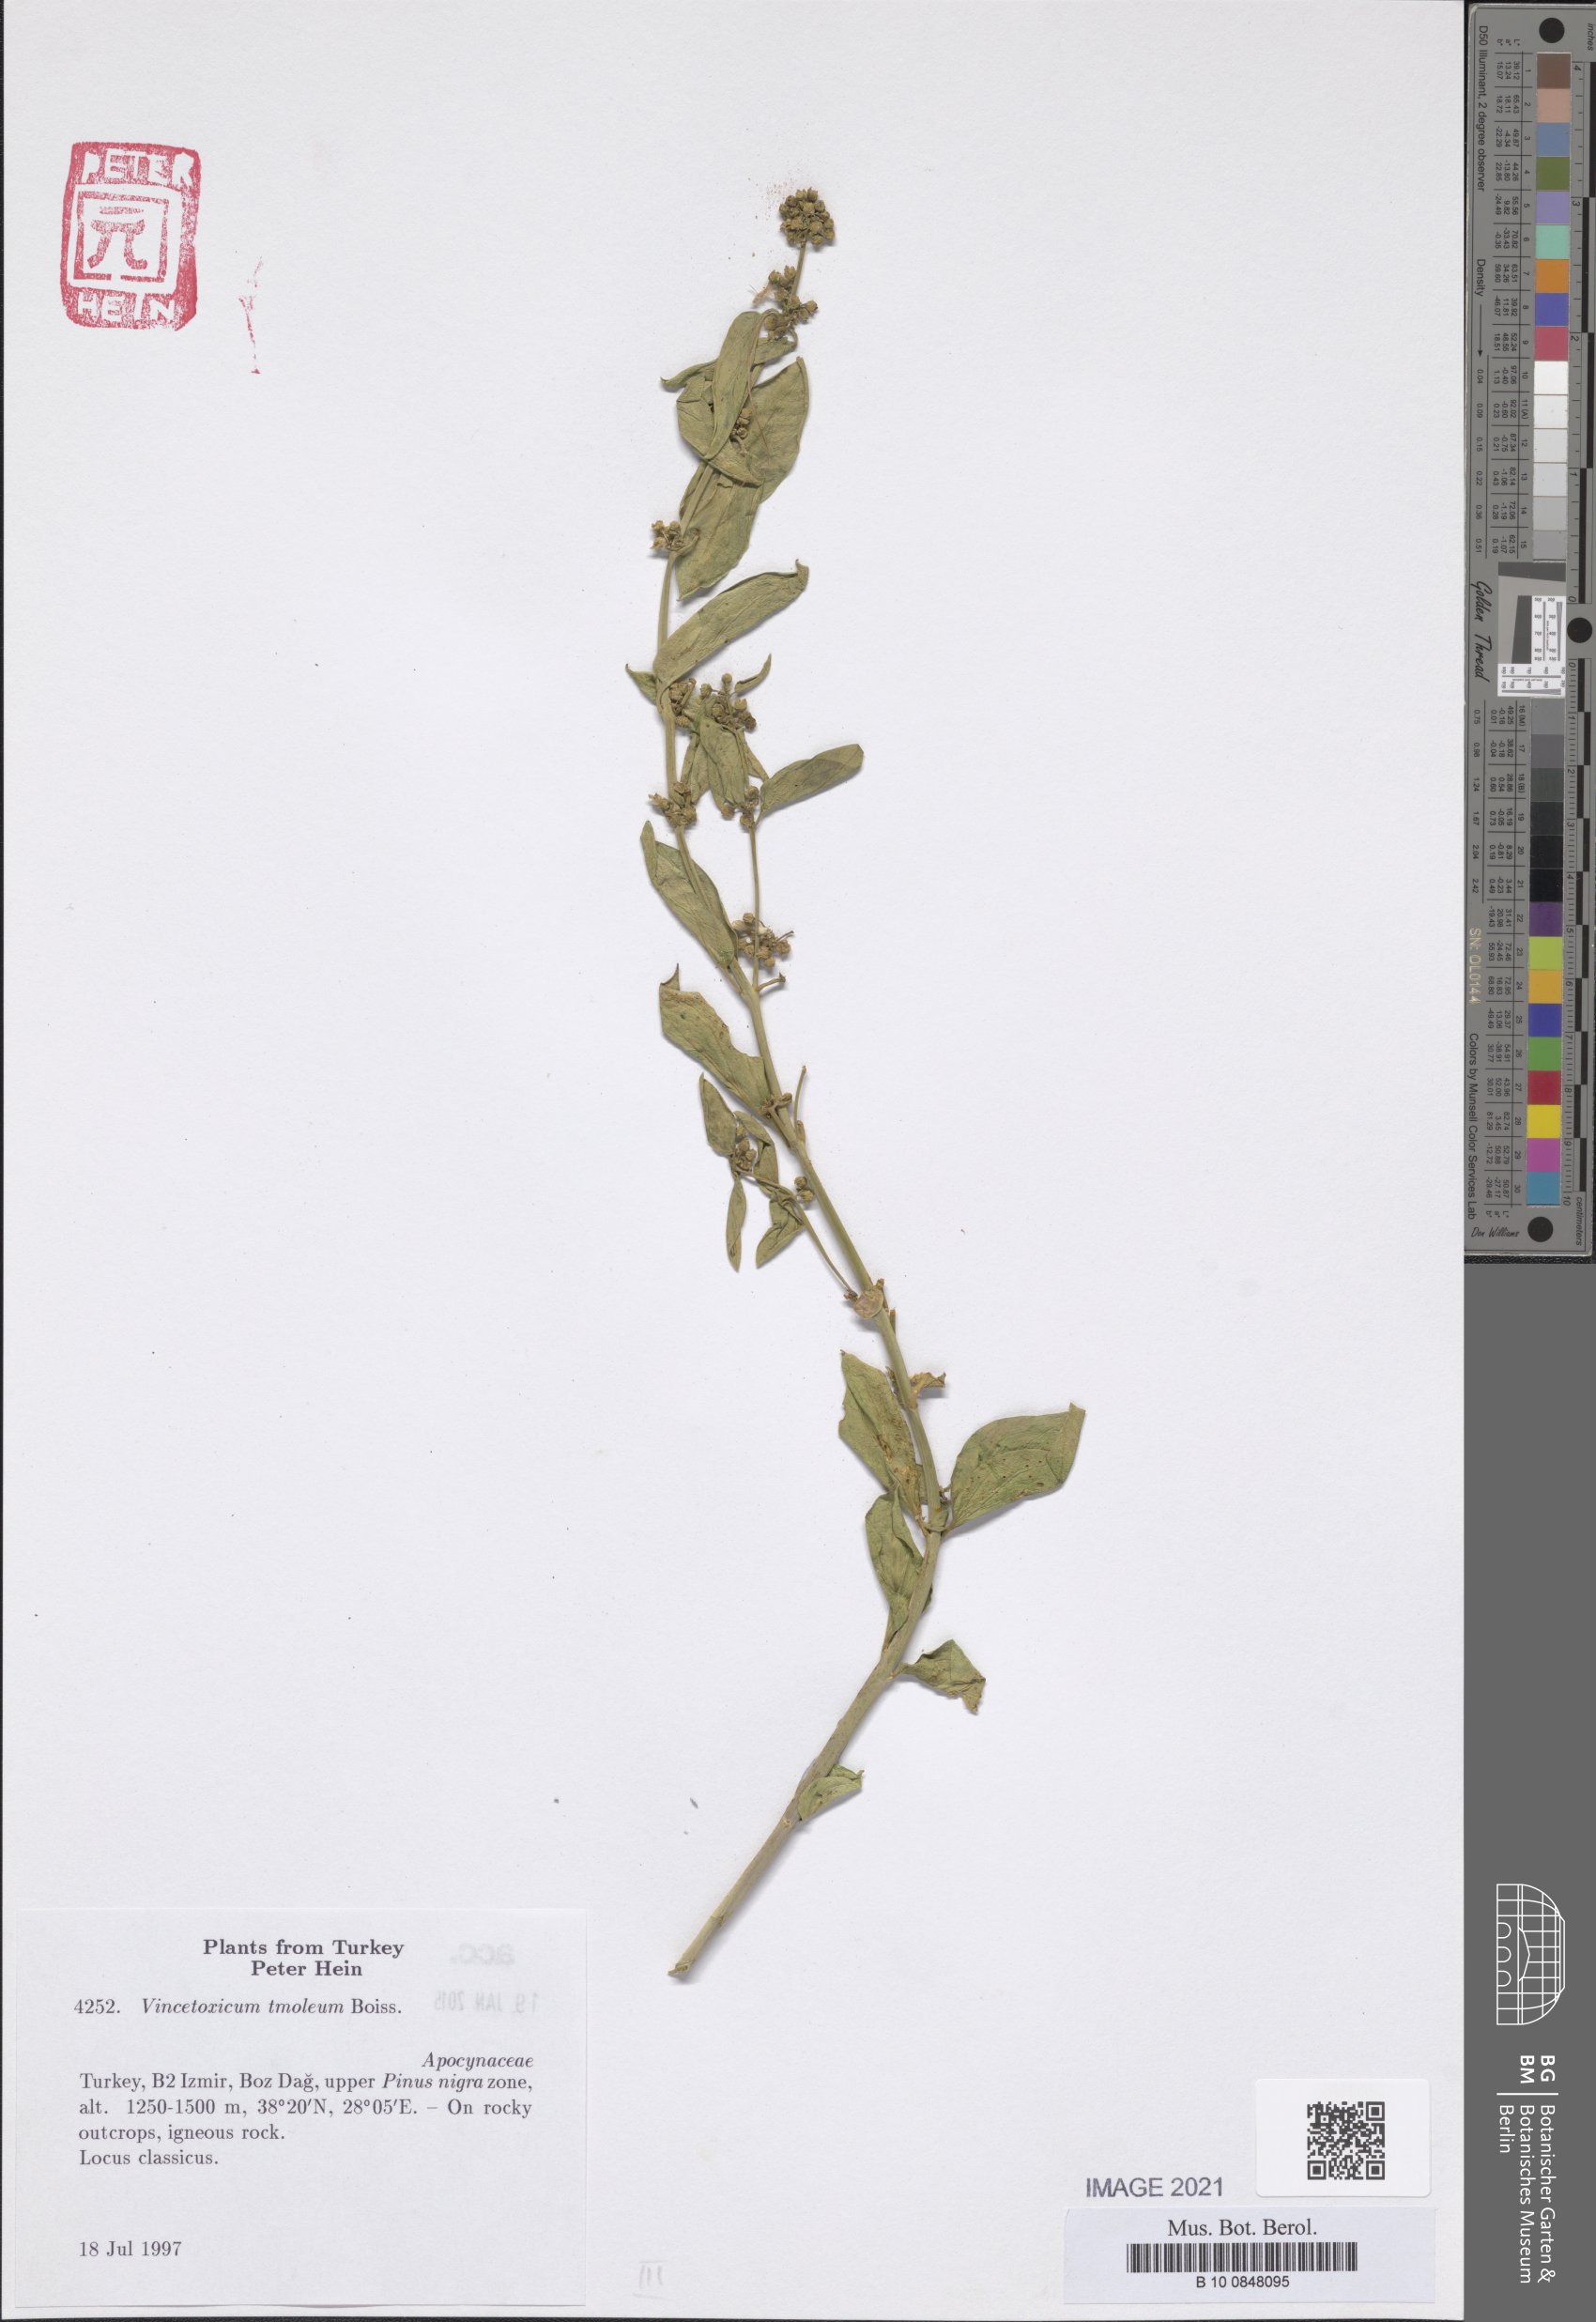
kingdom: Plantae
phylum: Tracheophyta
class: Magnoliopsida
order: Gentianales
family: Apocynaceae
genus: Vincetoxicum
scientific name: Vincetoxicum tmoleum
